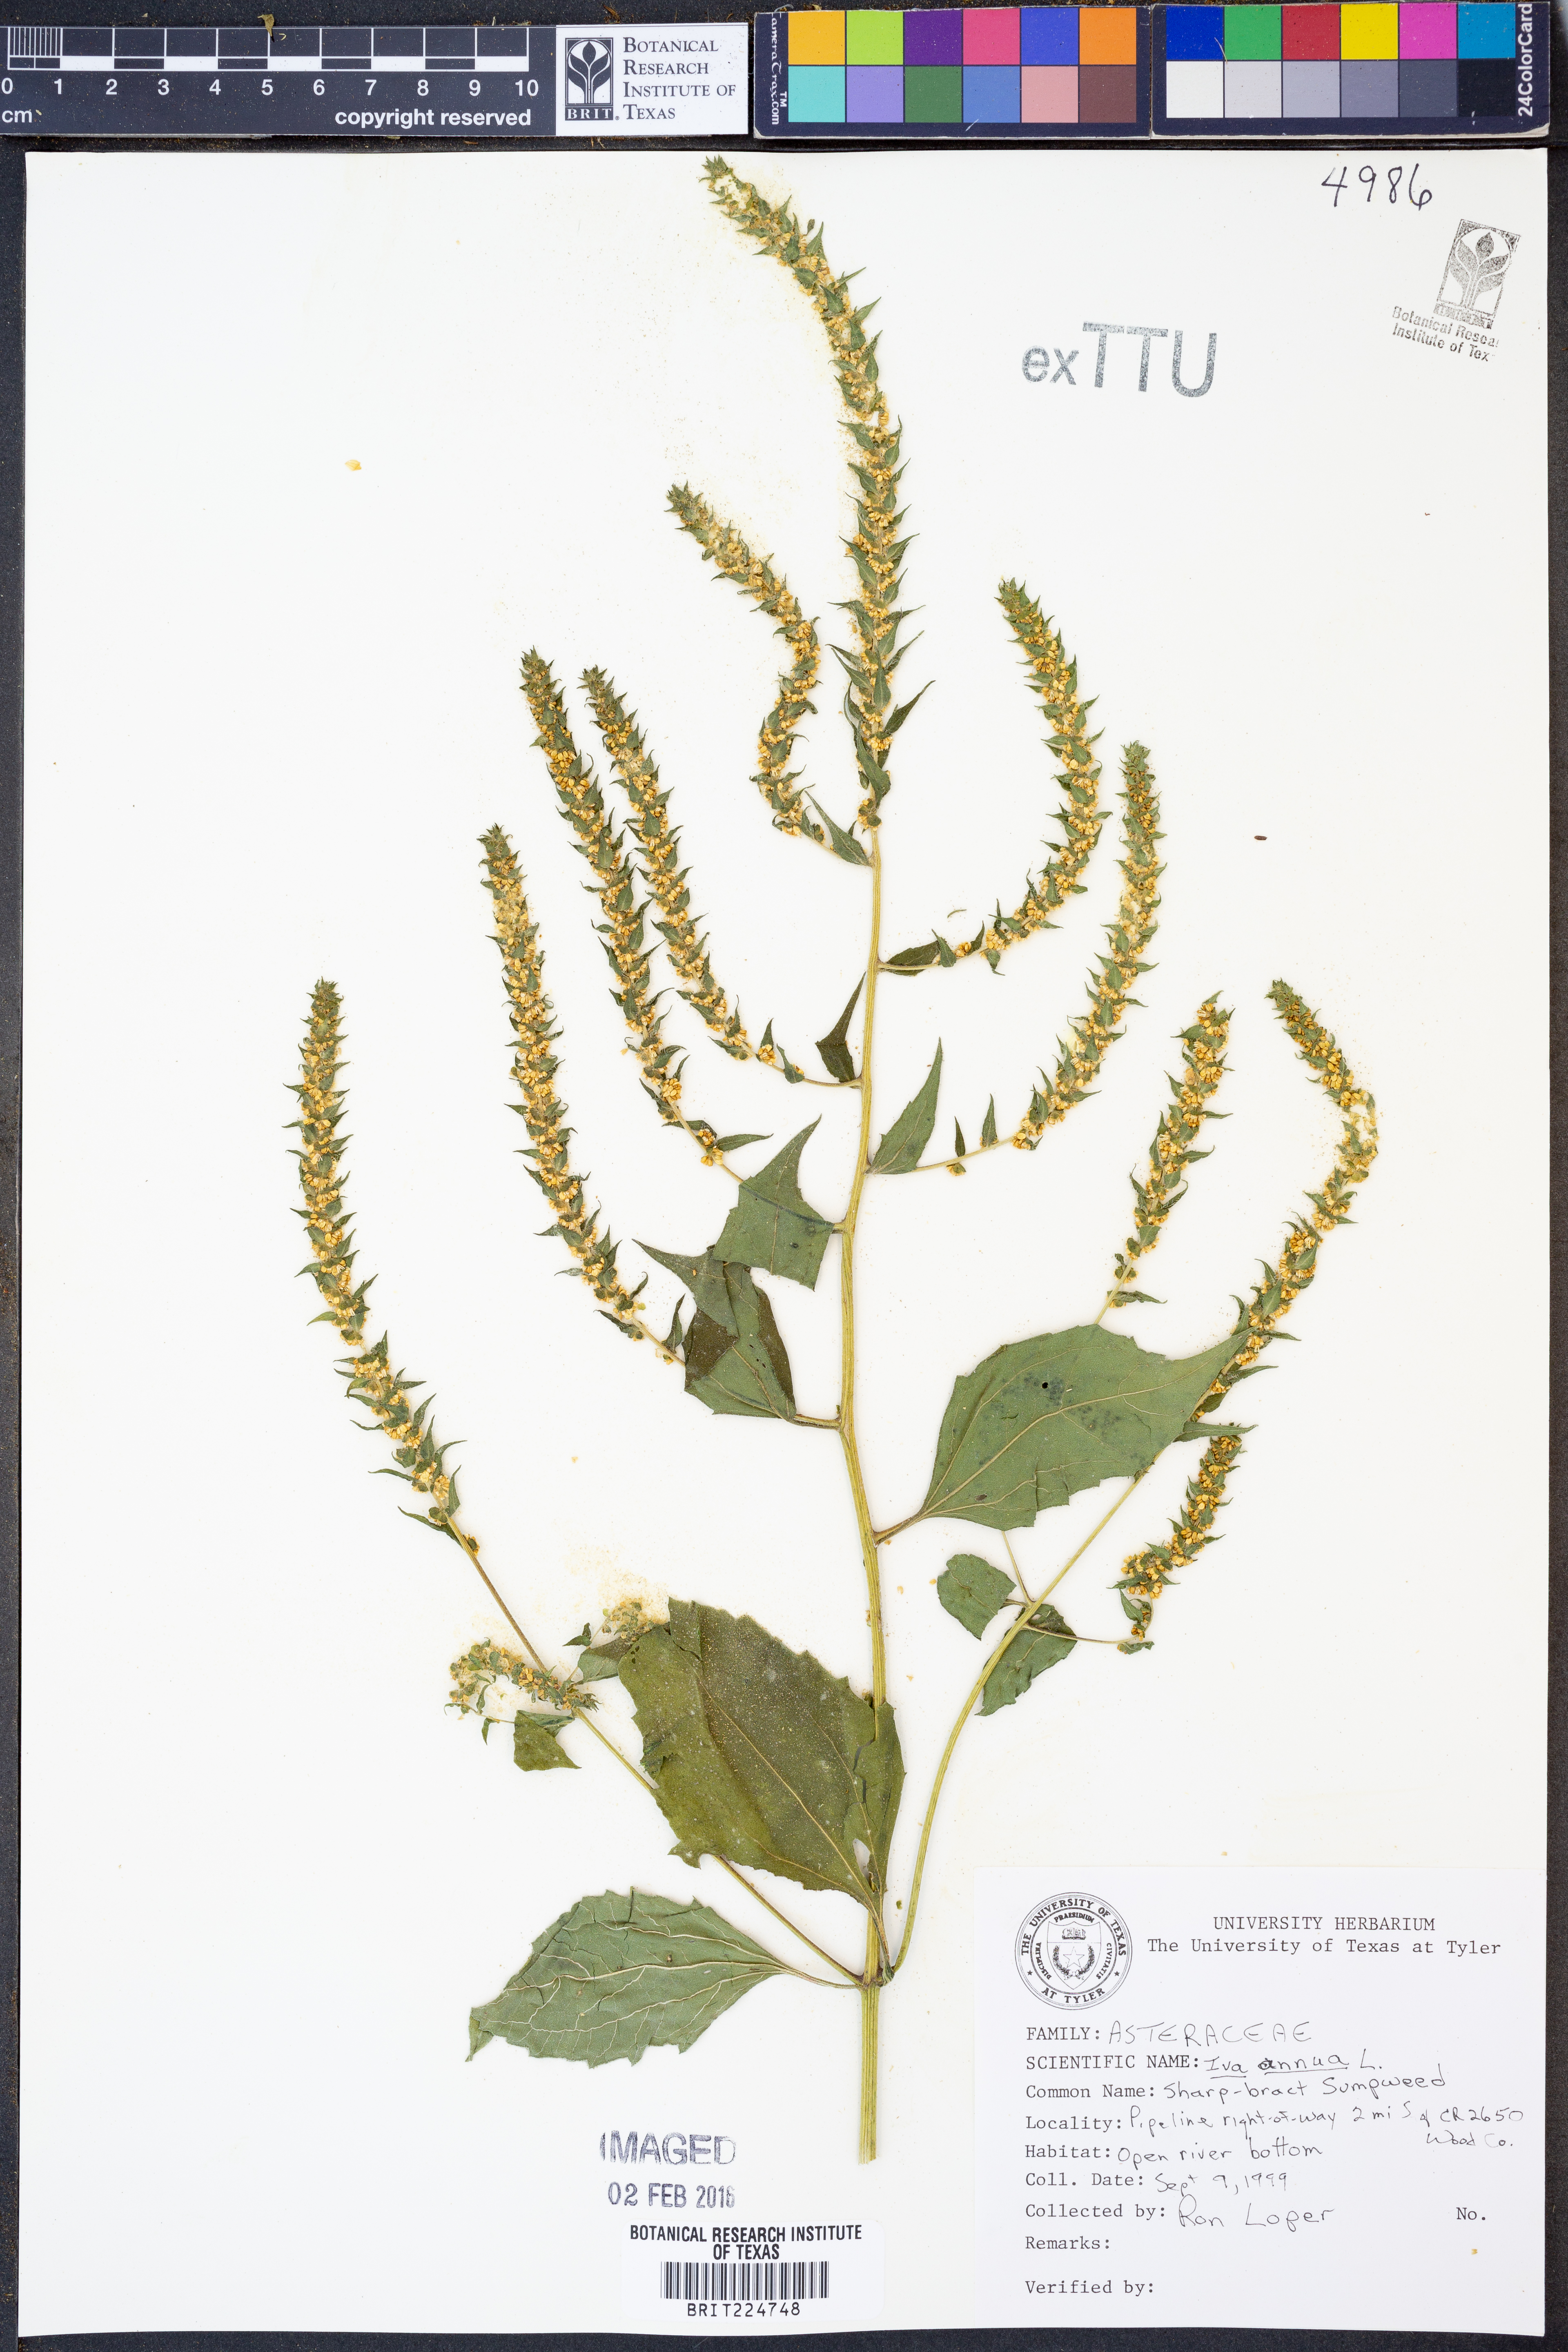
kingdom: Plantae
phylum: Tracheophyta
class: Magnoliopsida
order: Asterales
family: Asteraceae
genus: Iva
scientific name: Iva annua
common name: Marsh-elder
